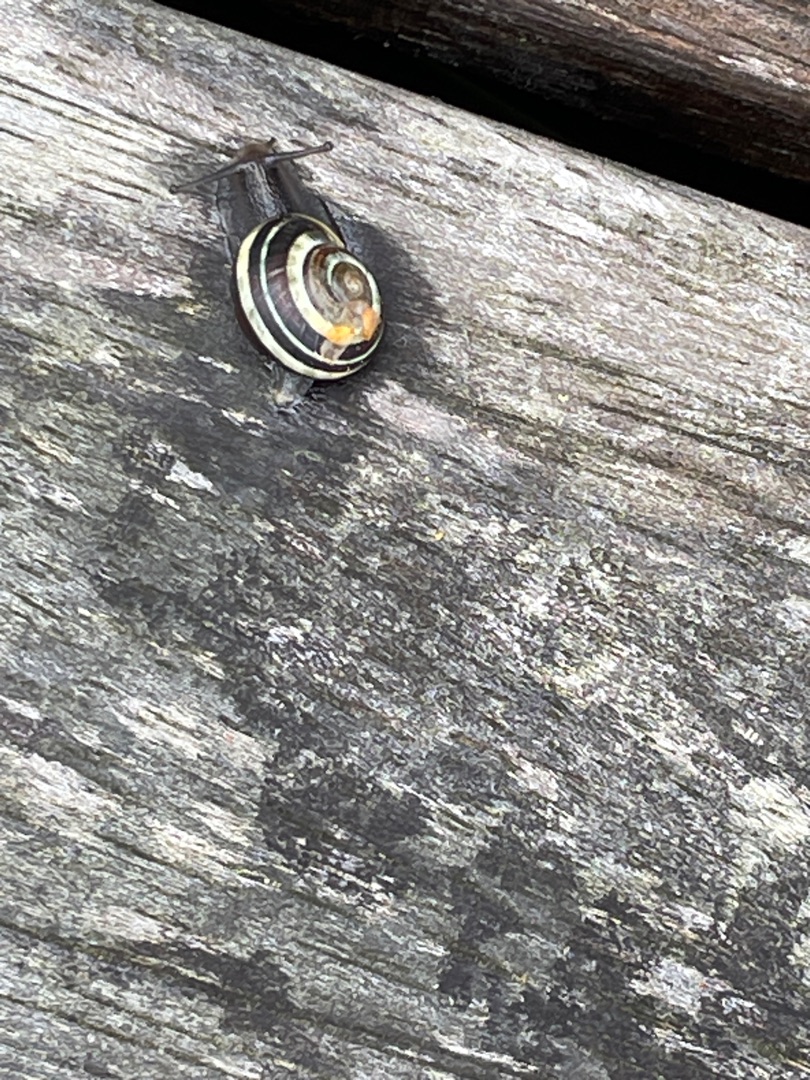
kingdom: Animalia
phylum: Mollusca
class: Gastropoda
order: Stylommatophora
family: Helicidae
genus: Cepaea
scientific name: Cepaea nemoralis
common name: Lundsnegl
